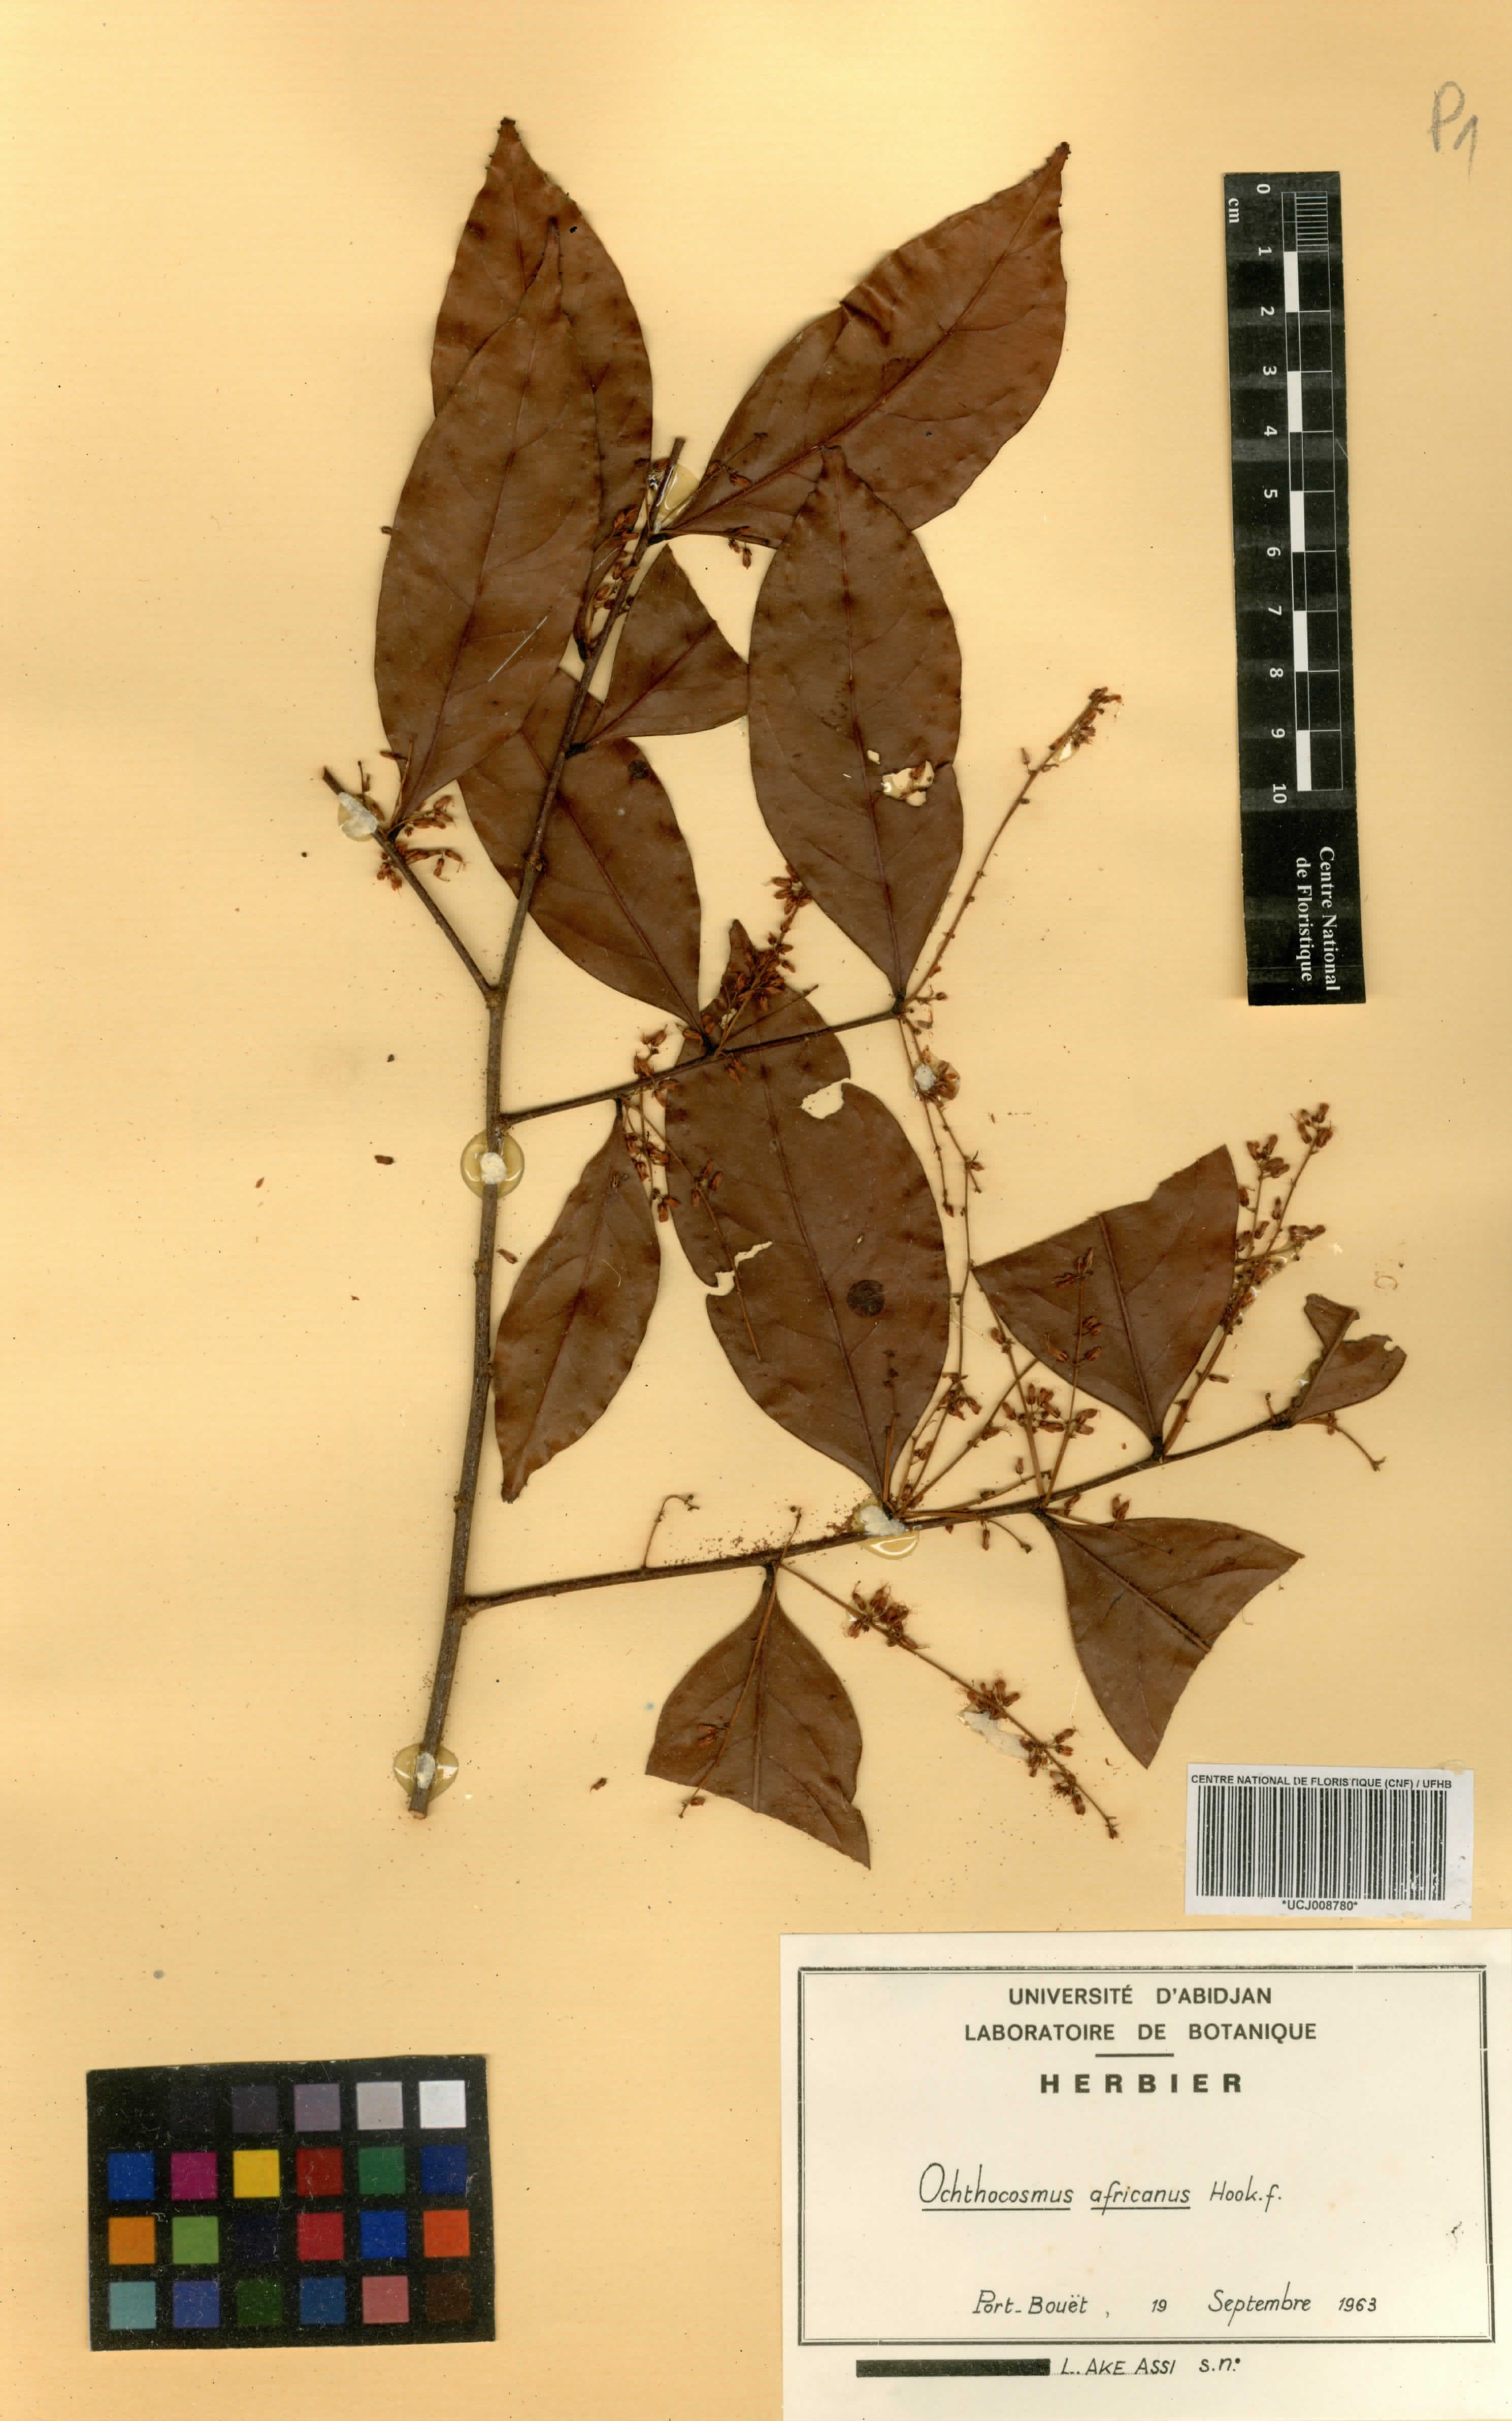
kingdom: Plantae
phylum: Tracheophyta
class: Magnoliopsida
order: Malpighiales
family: Ixonanthaceae
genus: Phyllocosmus
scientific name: Phyllocosmus africanus
